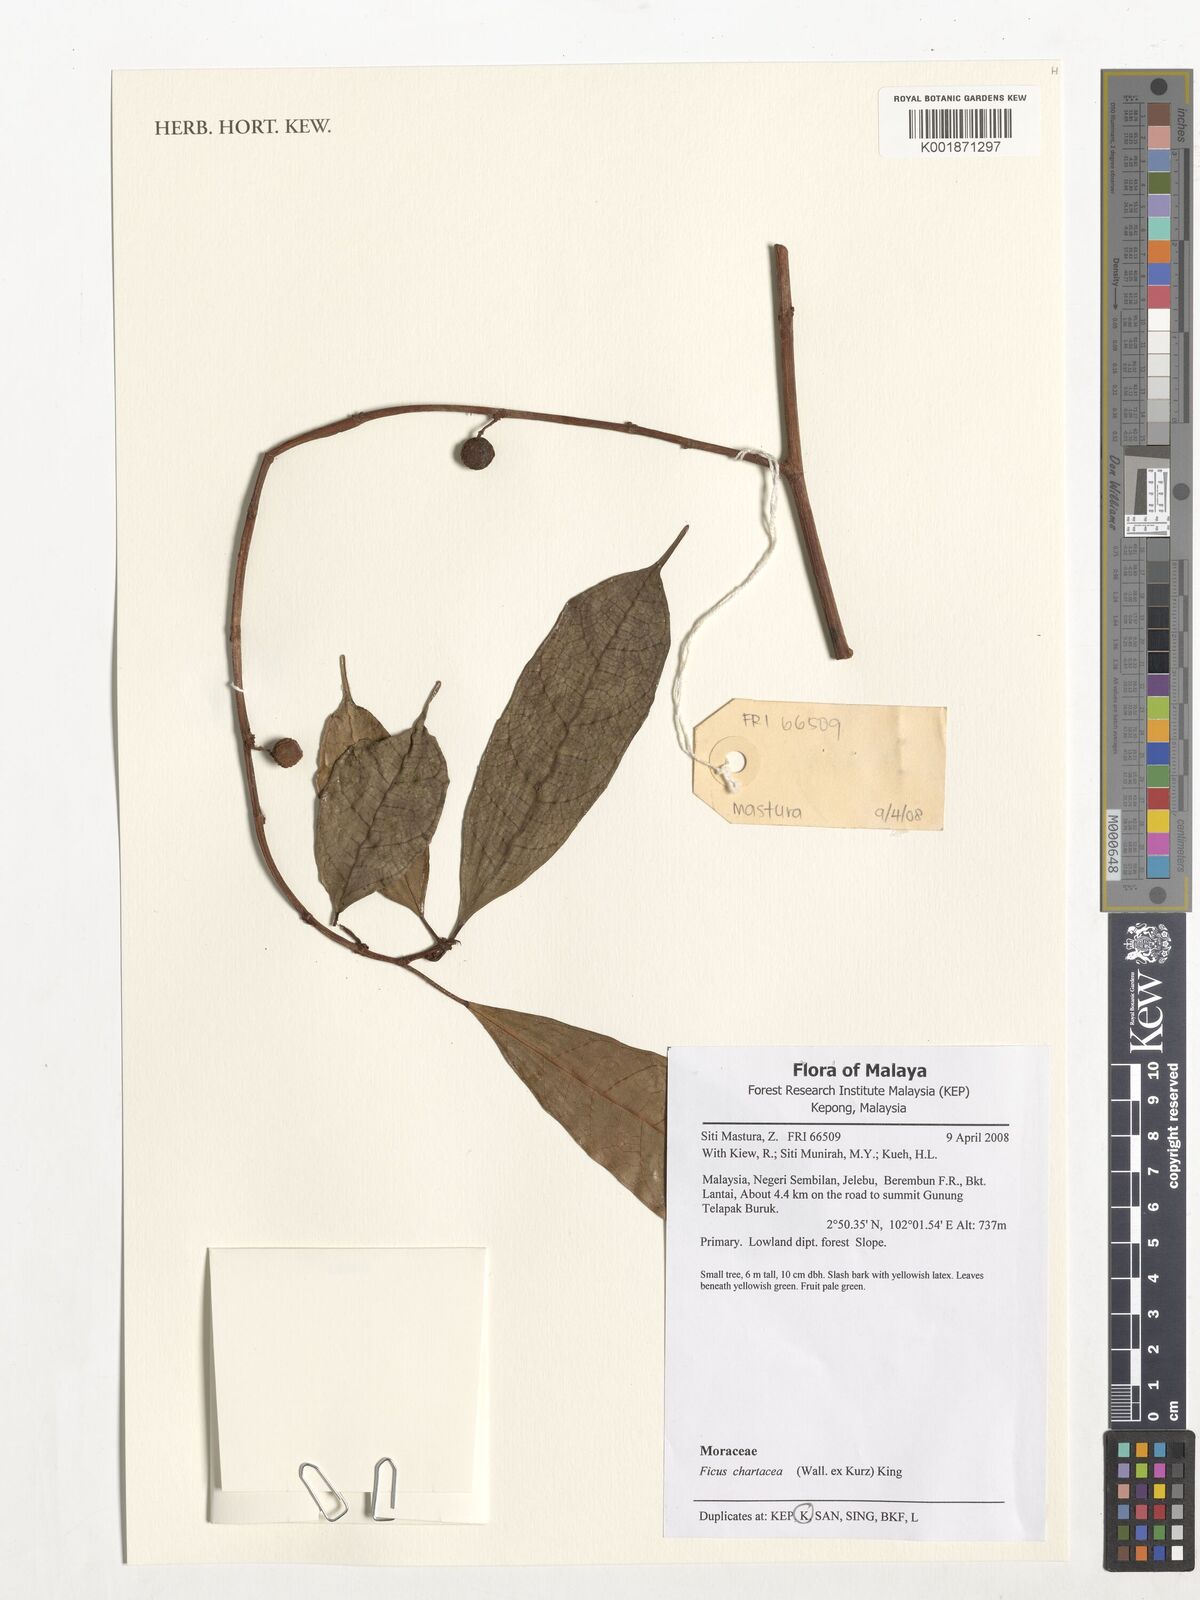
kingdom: Plantae
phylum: Tracheophyta
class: Magnoliopsida
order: Rosales
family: Moraceae
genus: Ficus
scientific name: Ficus chartacea
